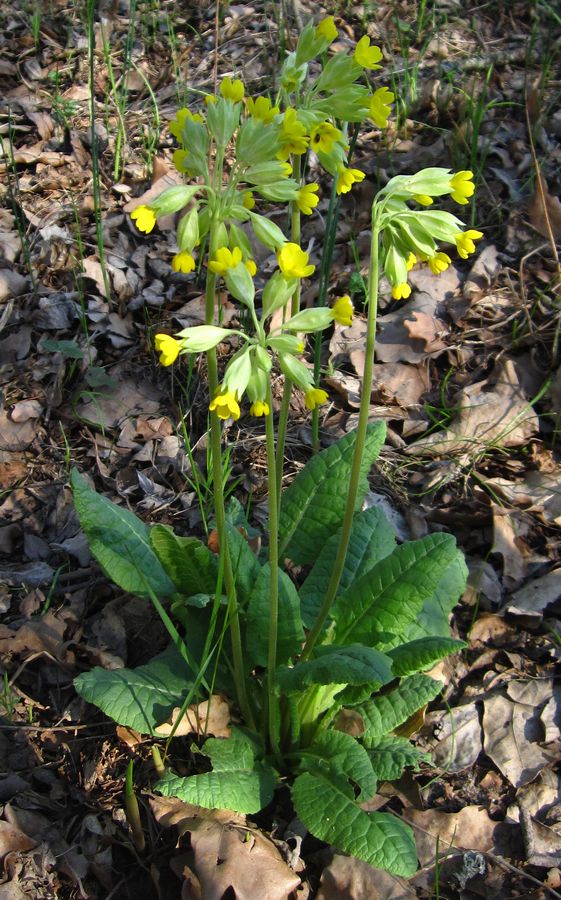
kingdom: Plantae
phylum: Tracheophyta
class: Magnoliopsida
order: Ericales
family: Primulaceae
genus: Primula
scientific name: Primula veris
